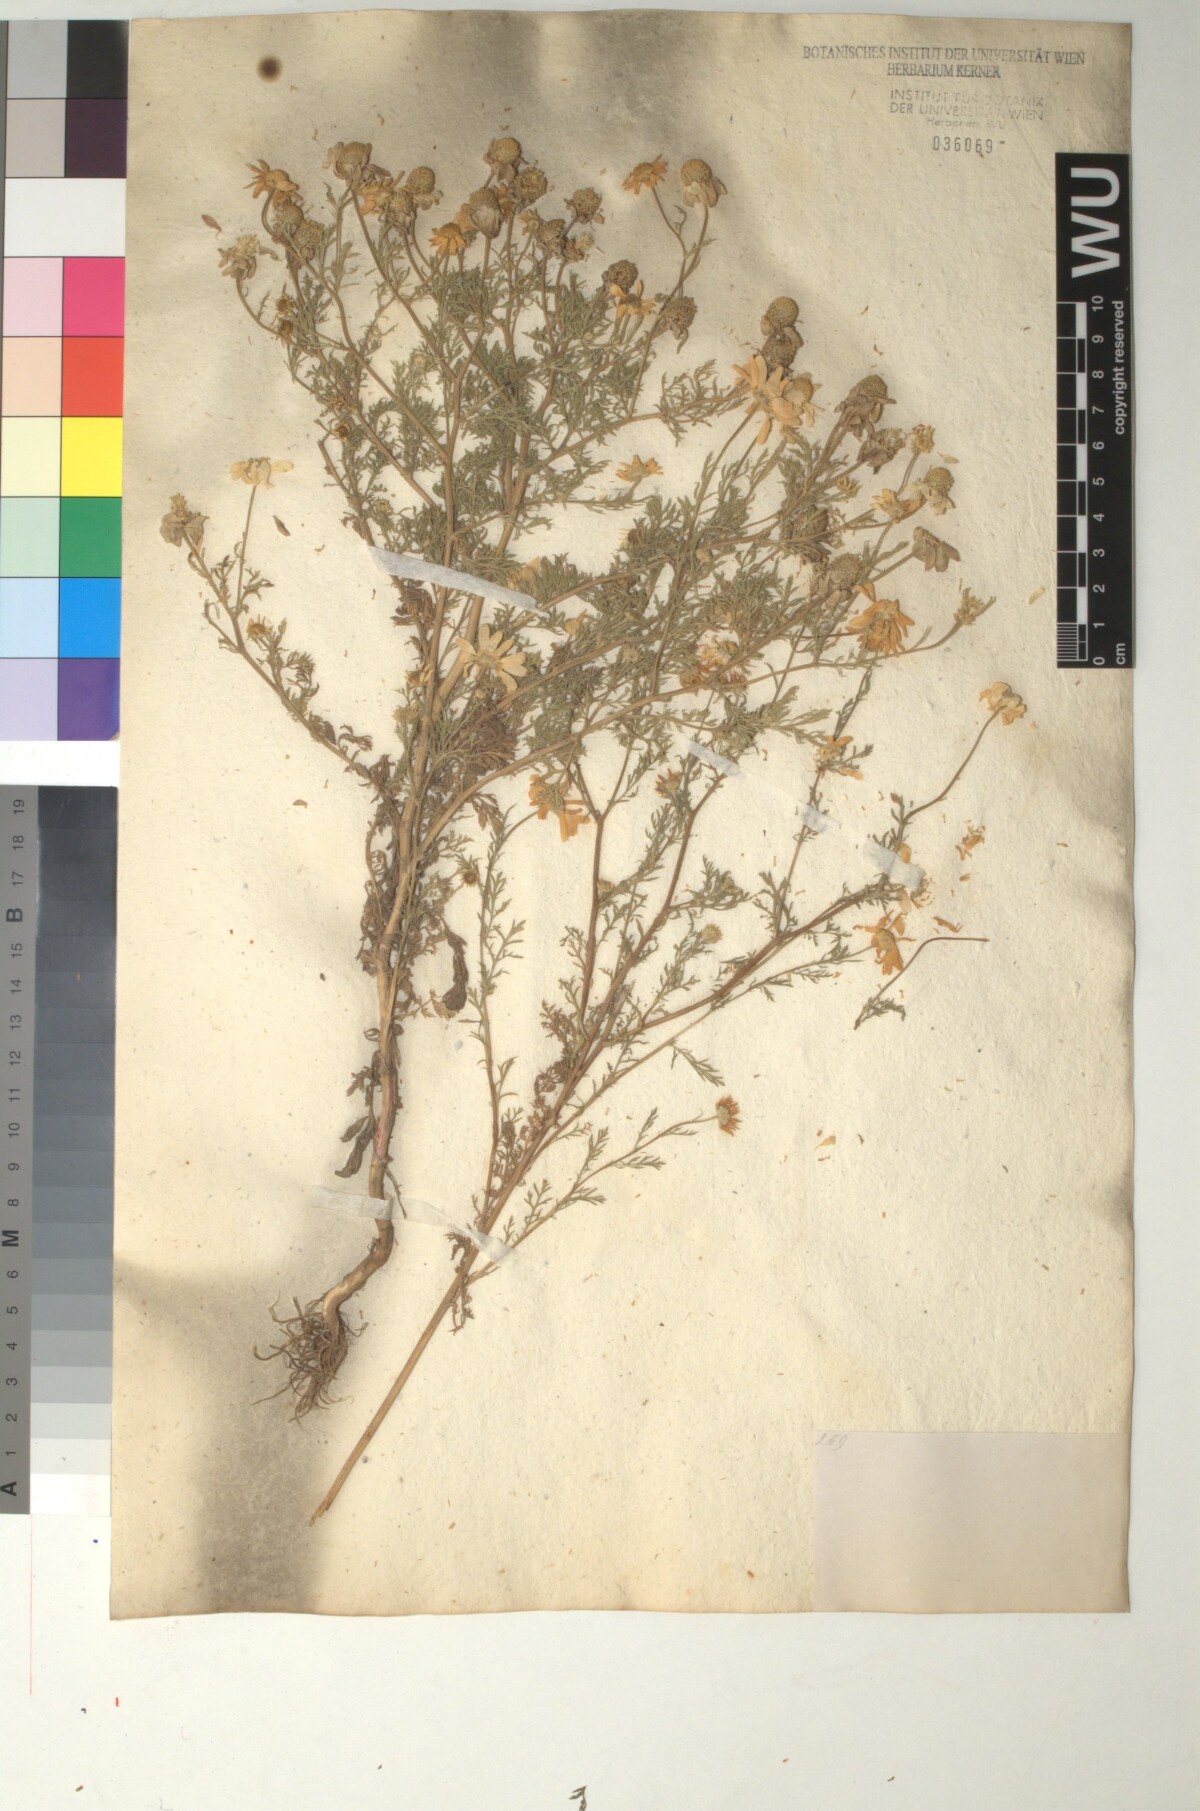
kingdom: Plantae
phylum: Tracheophyta
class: Magnoliopsida
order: Asterales
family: Asteraceae
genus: Anthemis
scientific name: Anthemis cotula
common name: Stinking chamomile
